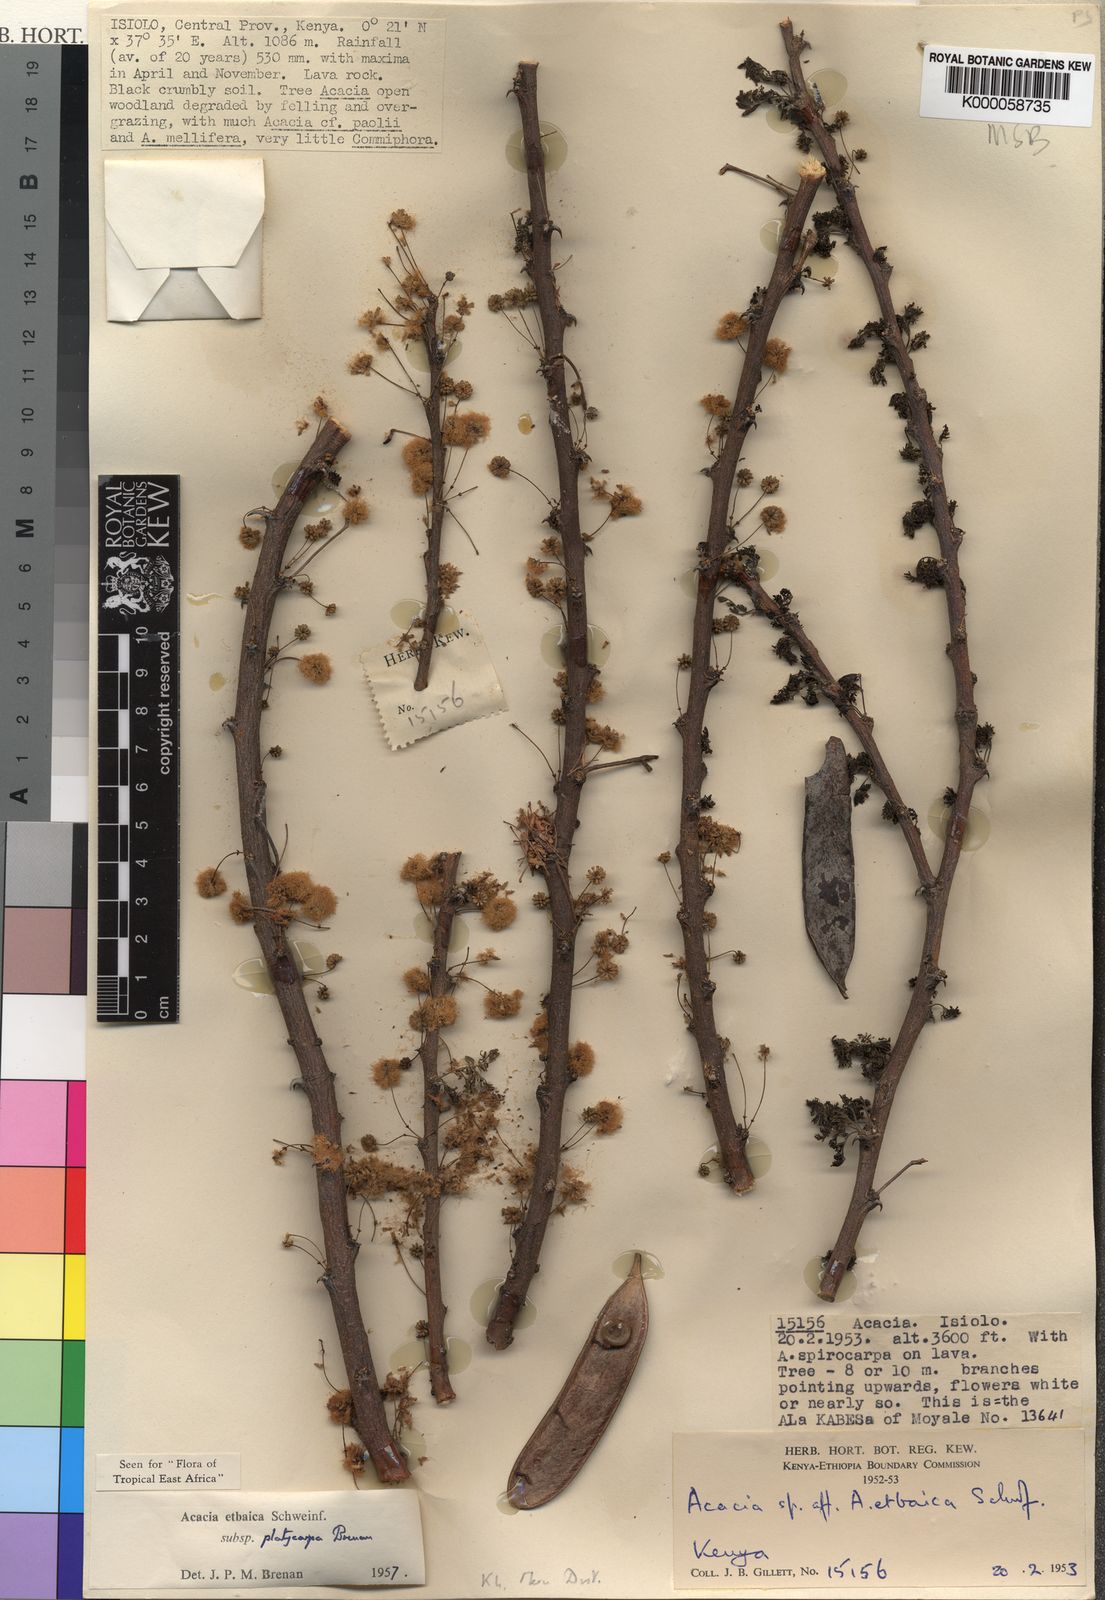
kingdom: Plantae
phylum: Tracheophyta
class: Magnoliopsida
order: Fabales
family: Fabaceae
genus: Vachellia
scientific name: Vachellia etbaica
